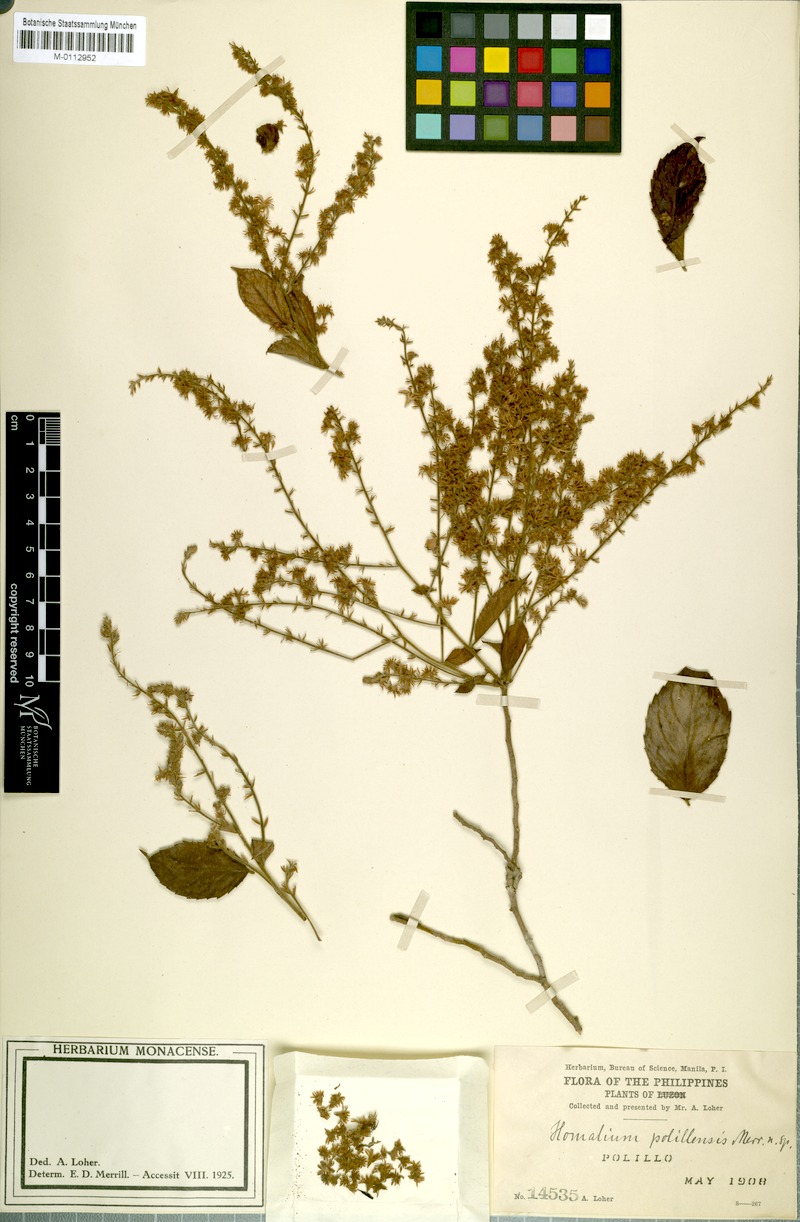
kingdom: Plantae
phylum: Tracheophyta
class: Magnoliopsida
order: Malpighiales
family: Salicaceae
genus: Homalium
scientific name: Homalium samarense
